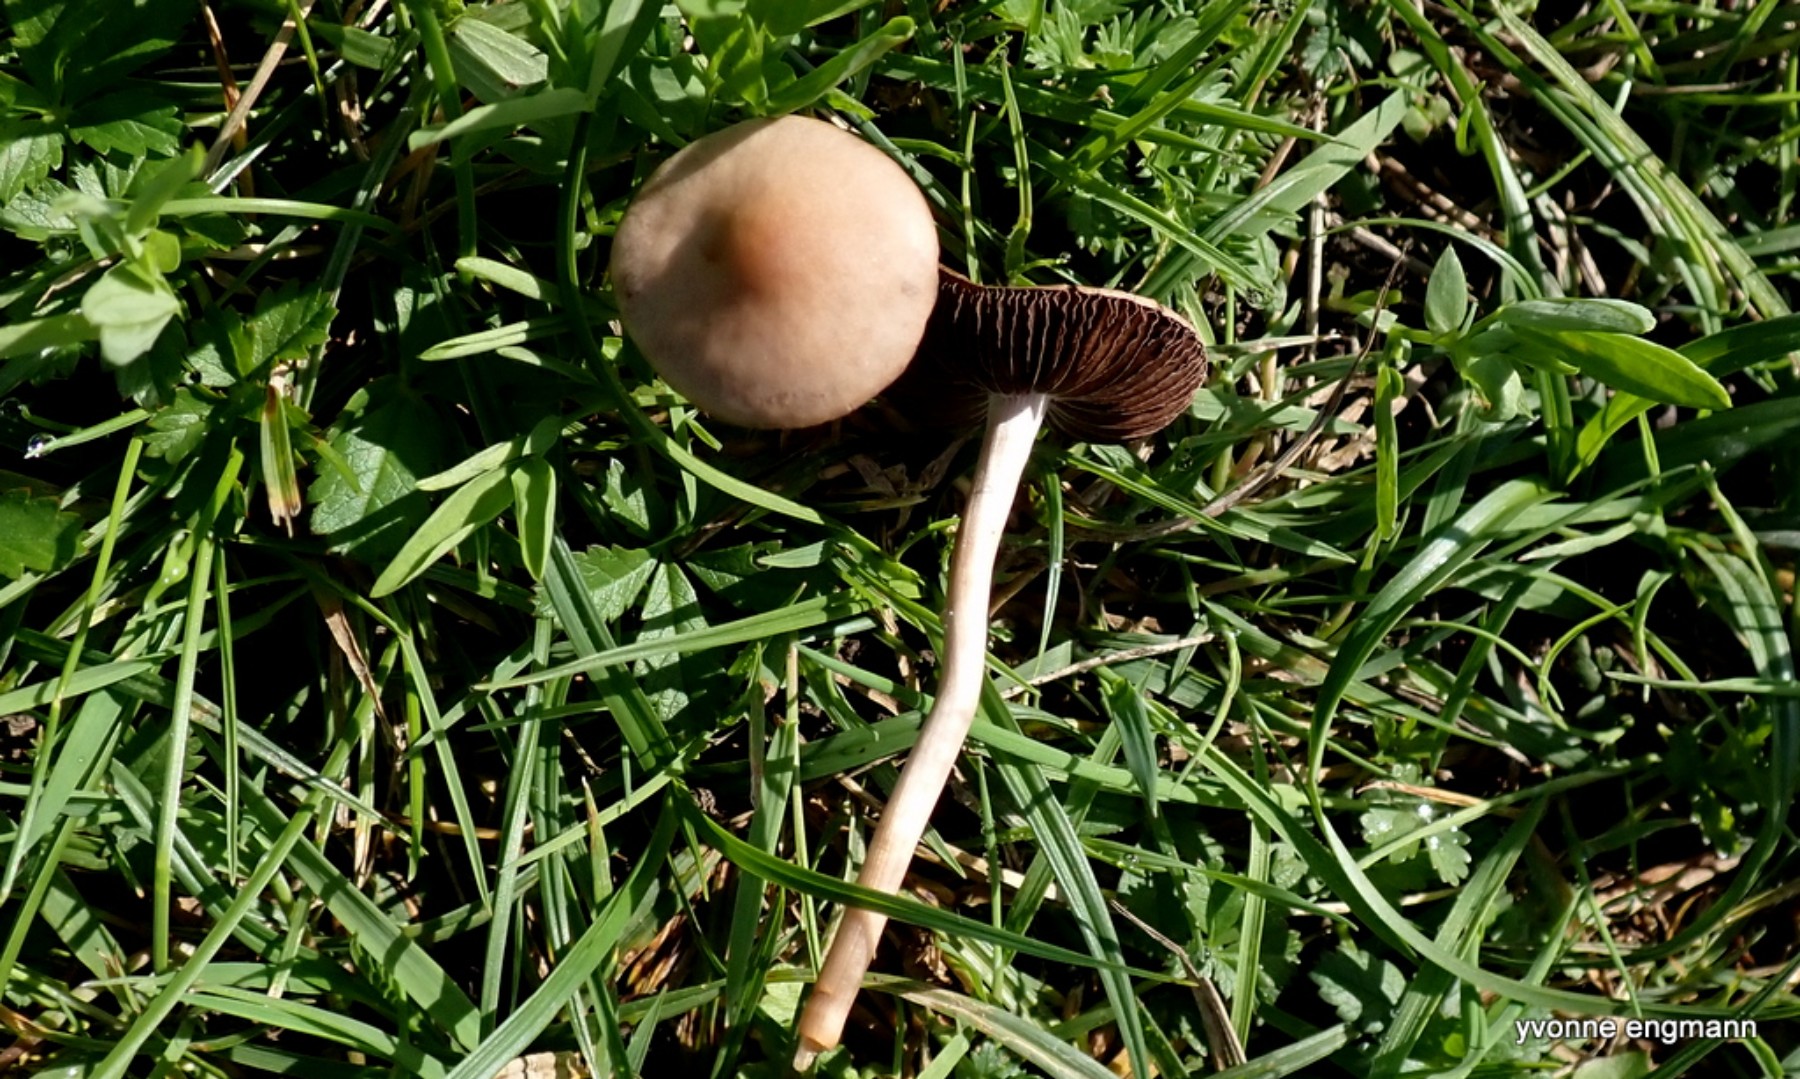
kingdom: Fungi
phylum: Basidiomycota
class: Agaricomycetes
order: Agaricales
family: Bolbitiaceae
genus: Panaeolina
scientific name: Panaeolina foenisecii
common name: høslætsvamp
